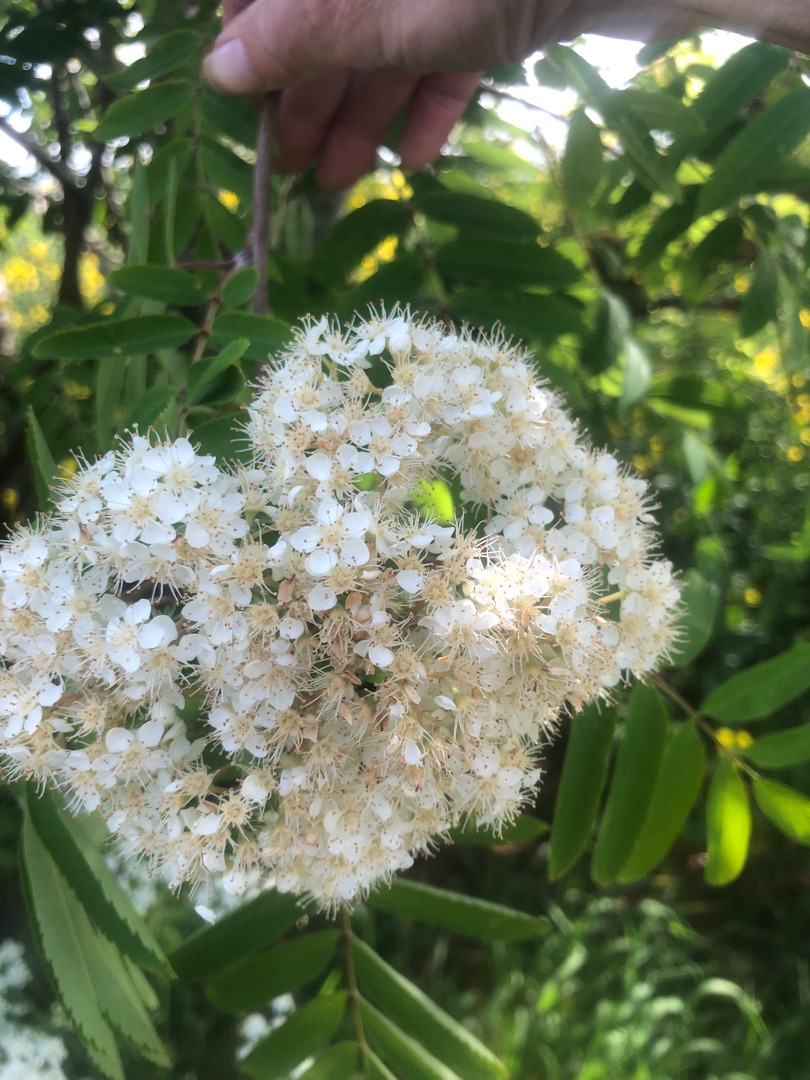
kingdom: Plantae
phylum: Tracheophyta
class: Magnoliopsida
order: Rosales
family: Rosaceae
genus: Sorbus
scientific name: Sorbus aucuparia
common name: Almindelig røn
